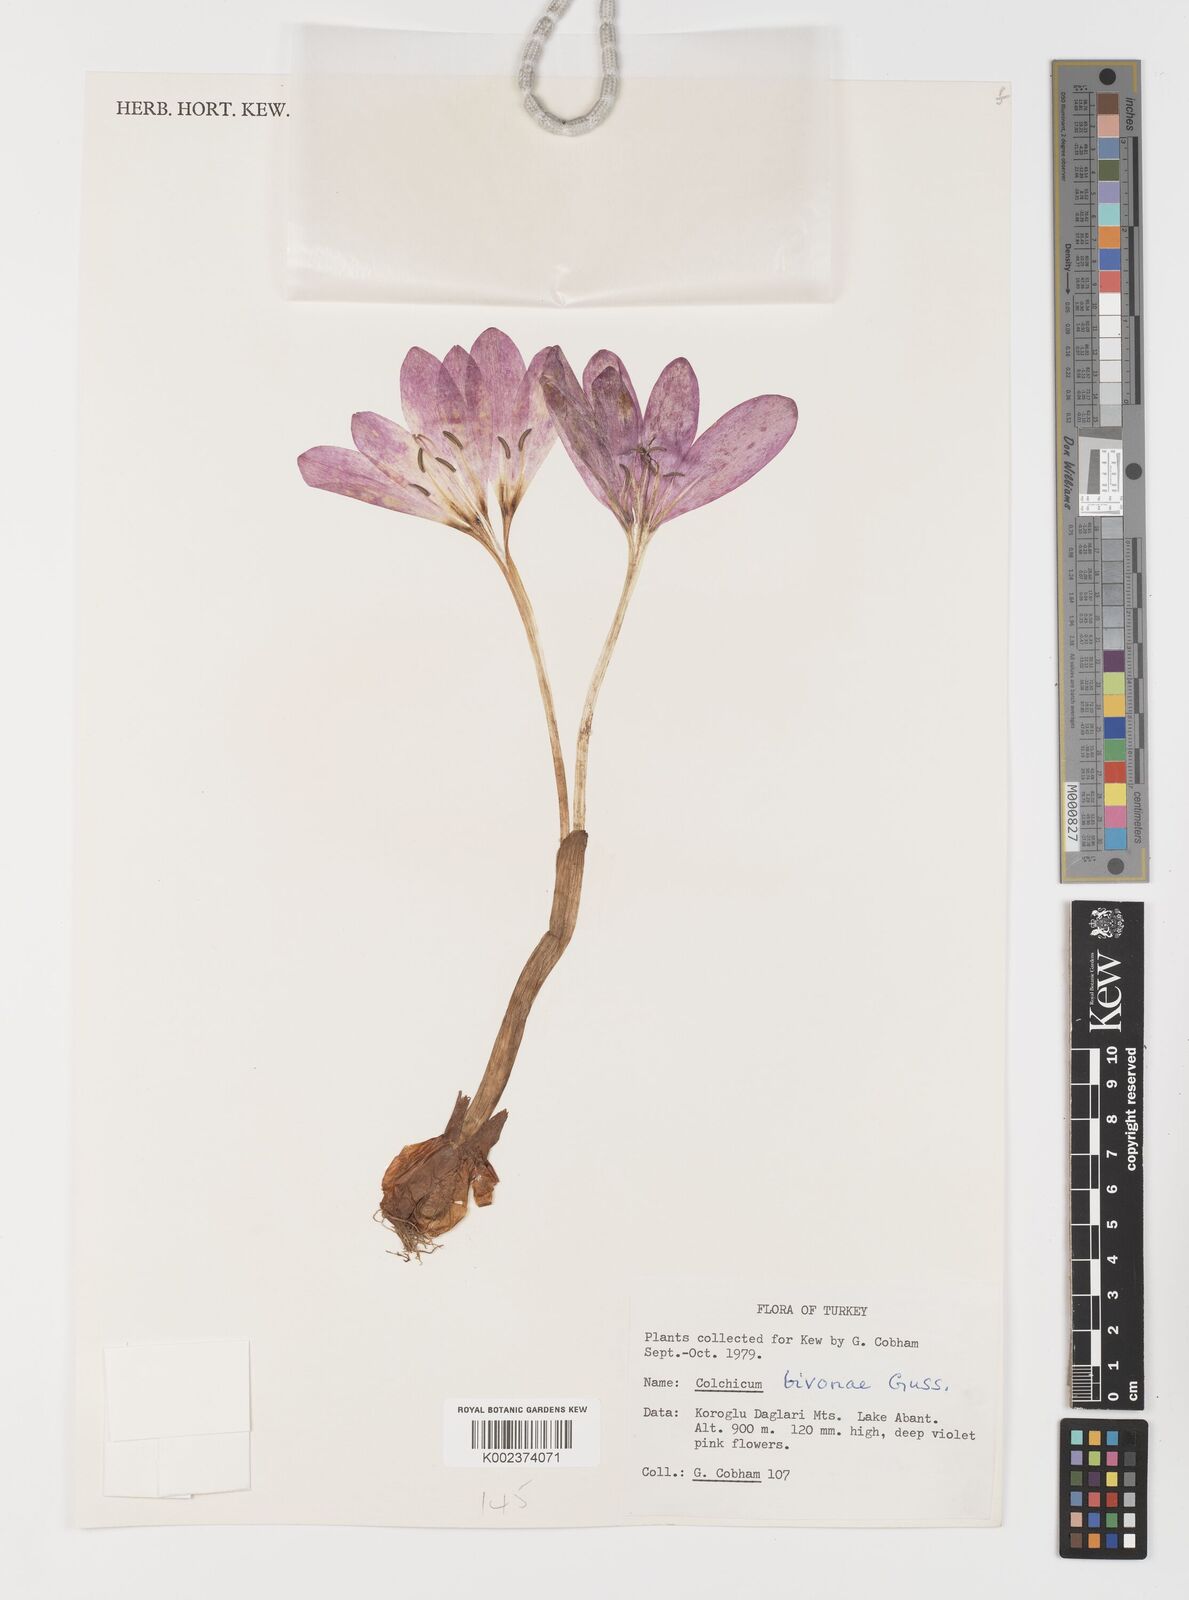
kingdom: Plantae
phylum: Tracheophyta
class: Liliopsida
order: Liliales
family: Colchicaceae
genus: Colchicum
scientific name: Colchicum bivonae
